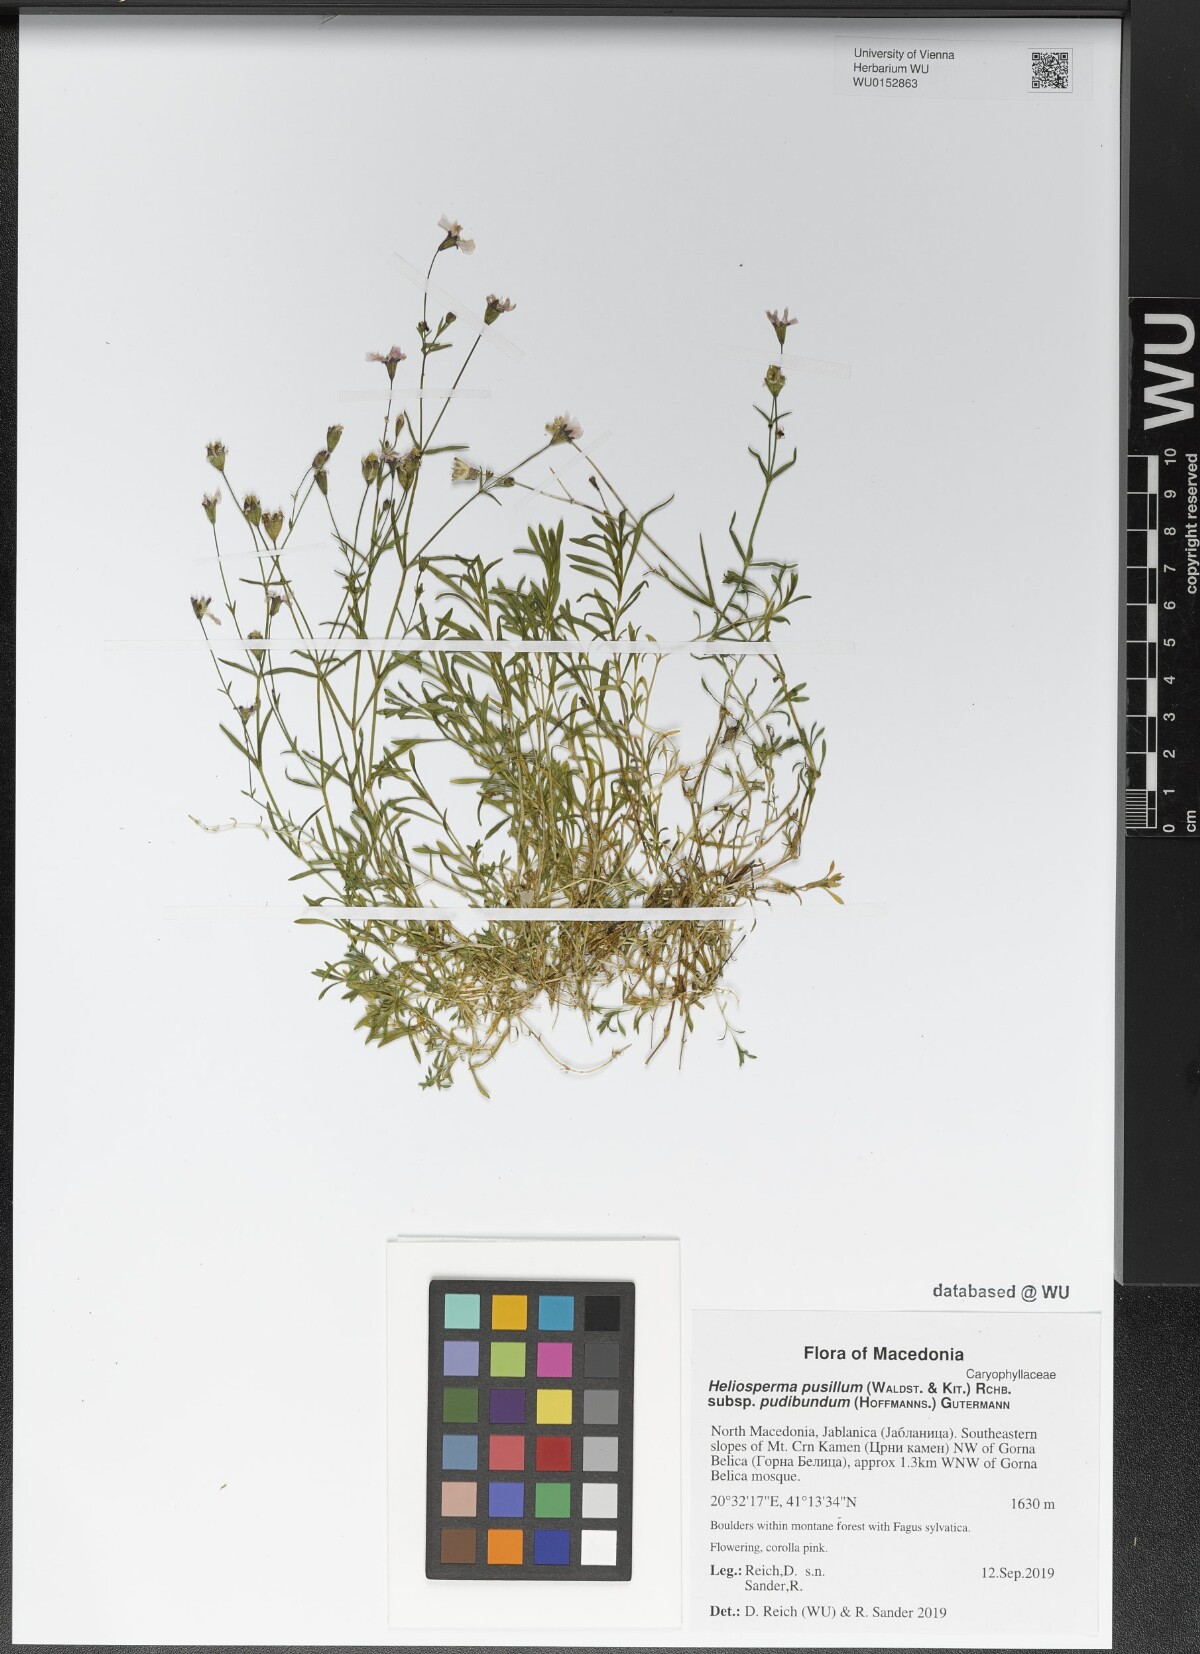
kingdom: Plantae
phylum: Tracheophyta
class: Magnoliopsida
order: Caryophyllales
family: Caryophyllaceae
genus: Heliosperma
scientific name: Heliosperma pudibundum
